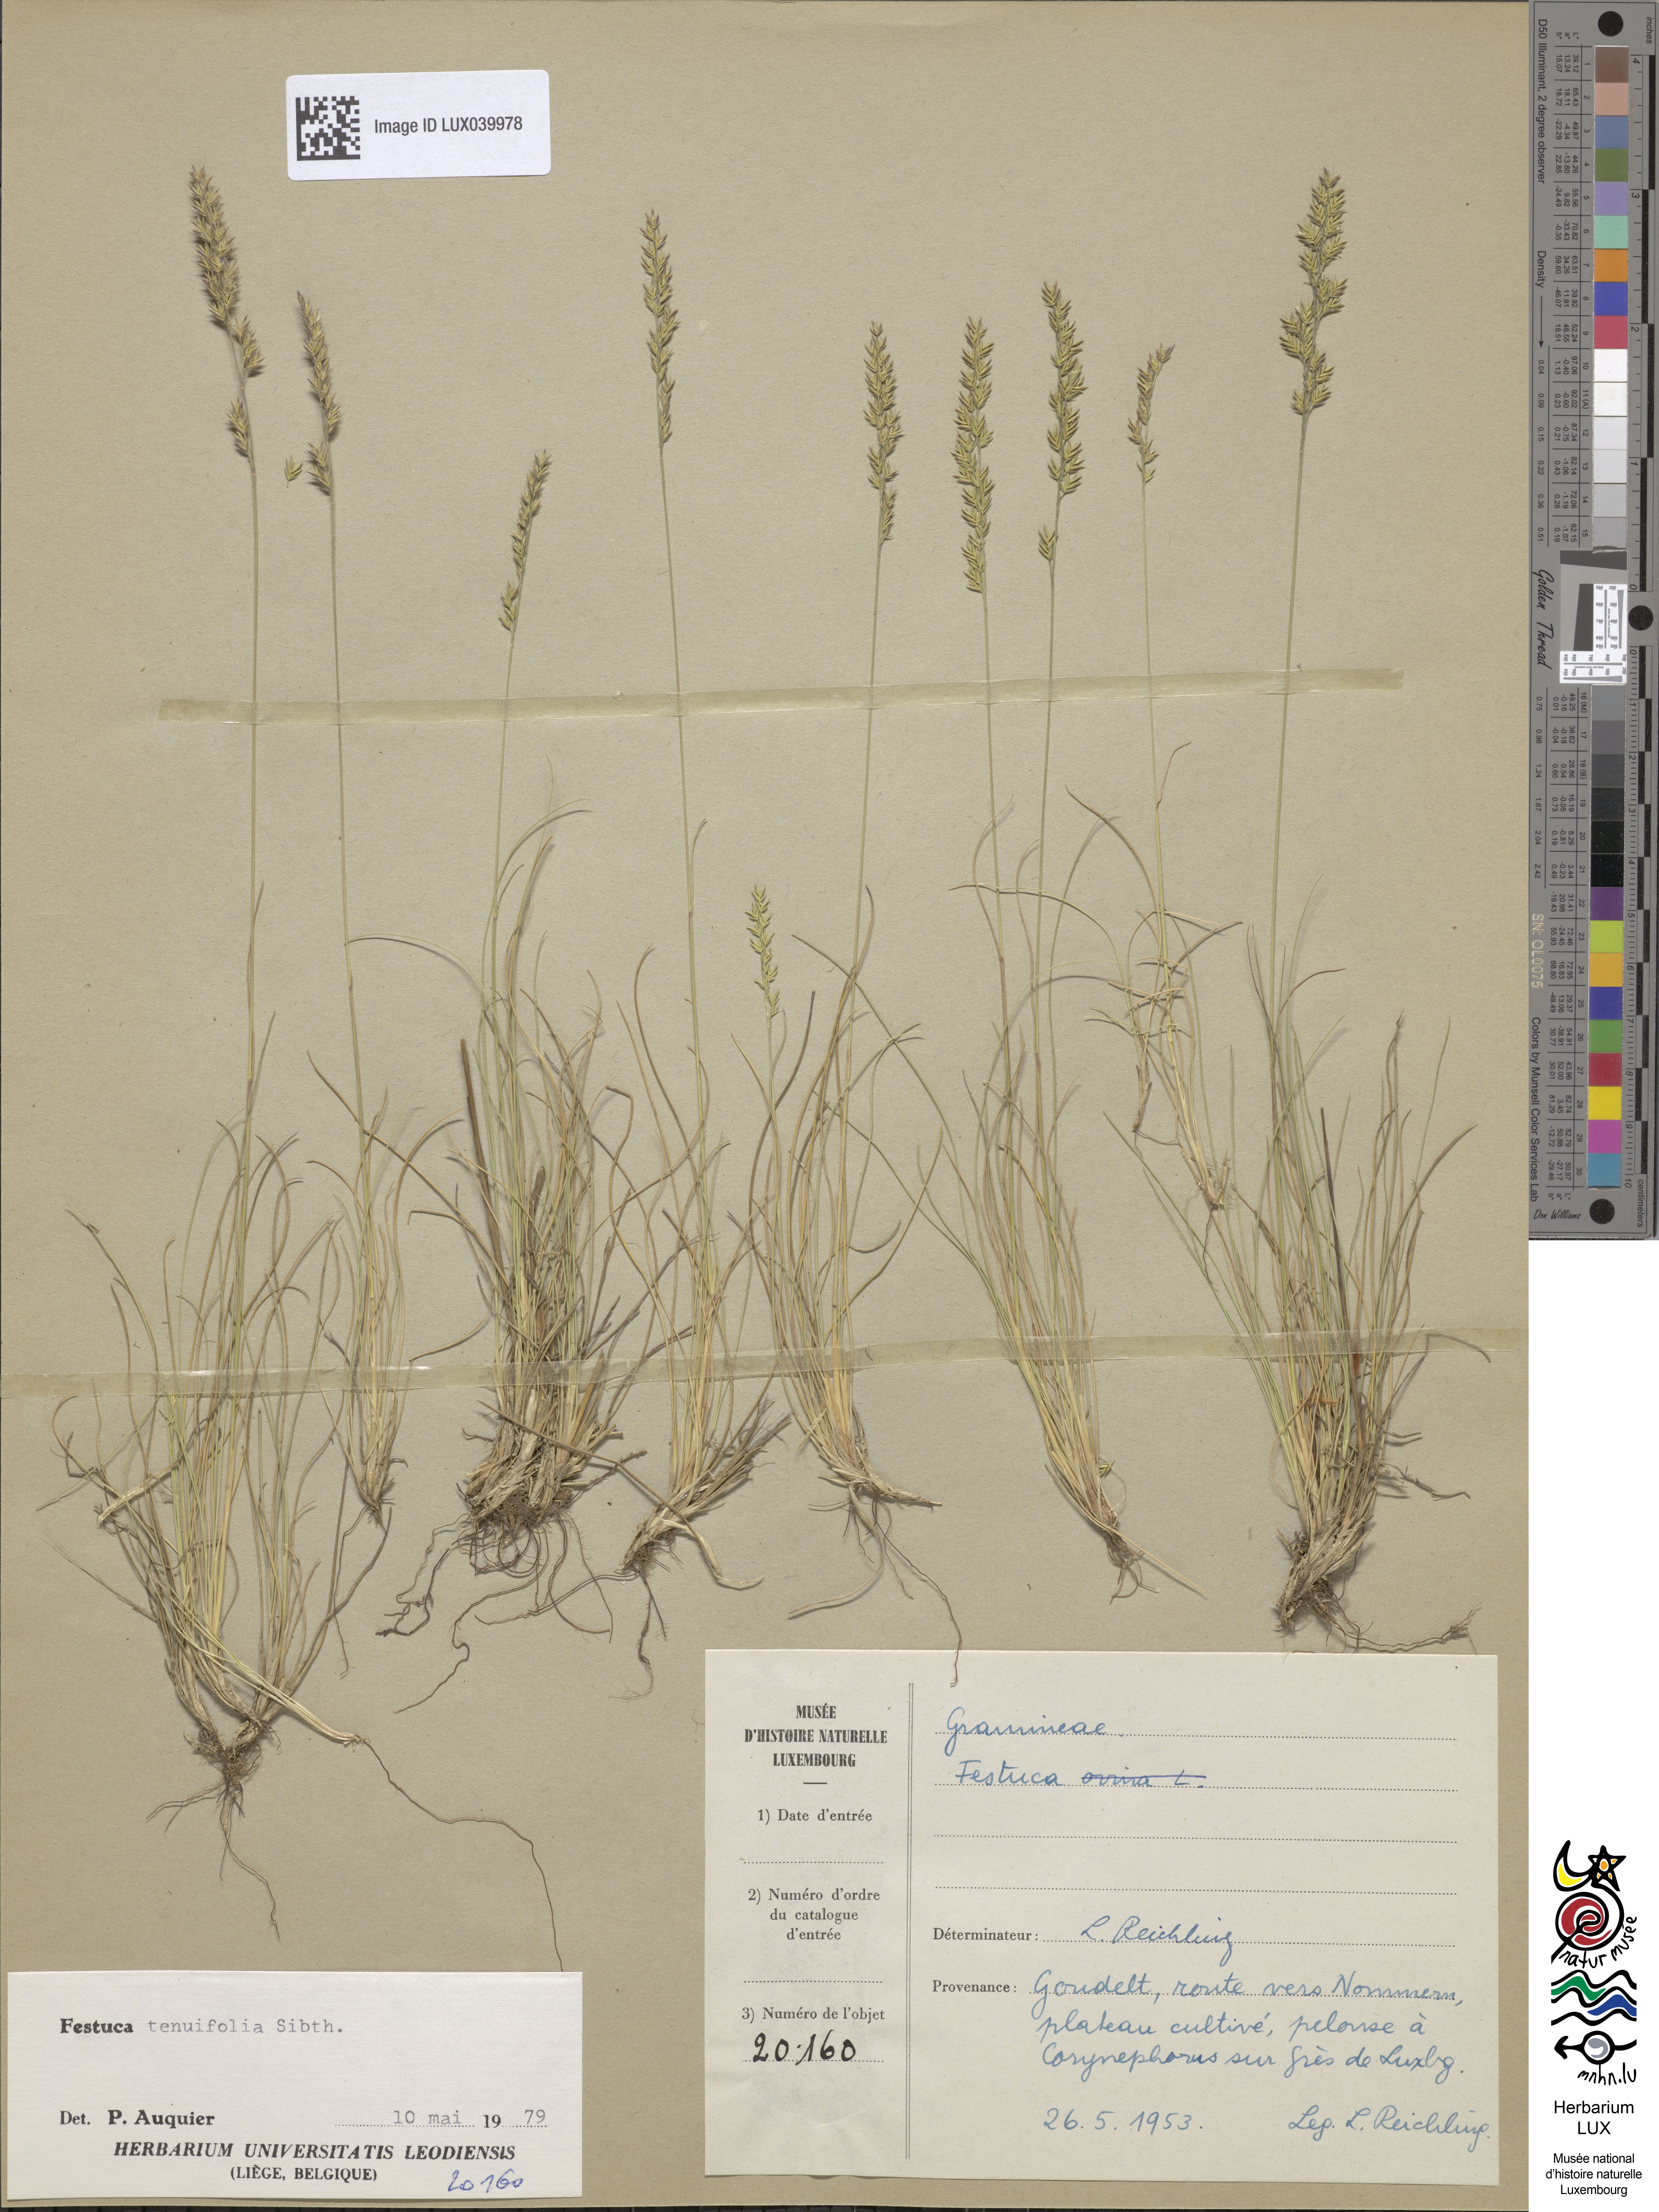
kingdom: Plantae
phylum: Tracheophyta
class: Liliopsida
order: Poales
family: Poaceae
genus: Festuca
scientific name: Festuca ovina
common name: Sheep fescue
